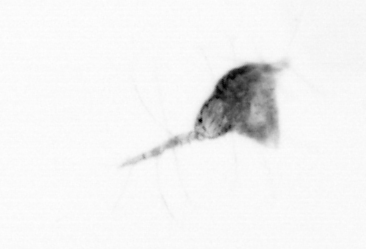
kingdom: Animalia
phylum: Arthropoda
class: Copepoda
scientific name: Copepoda
